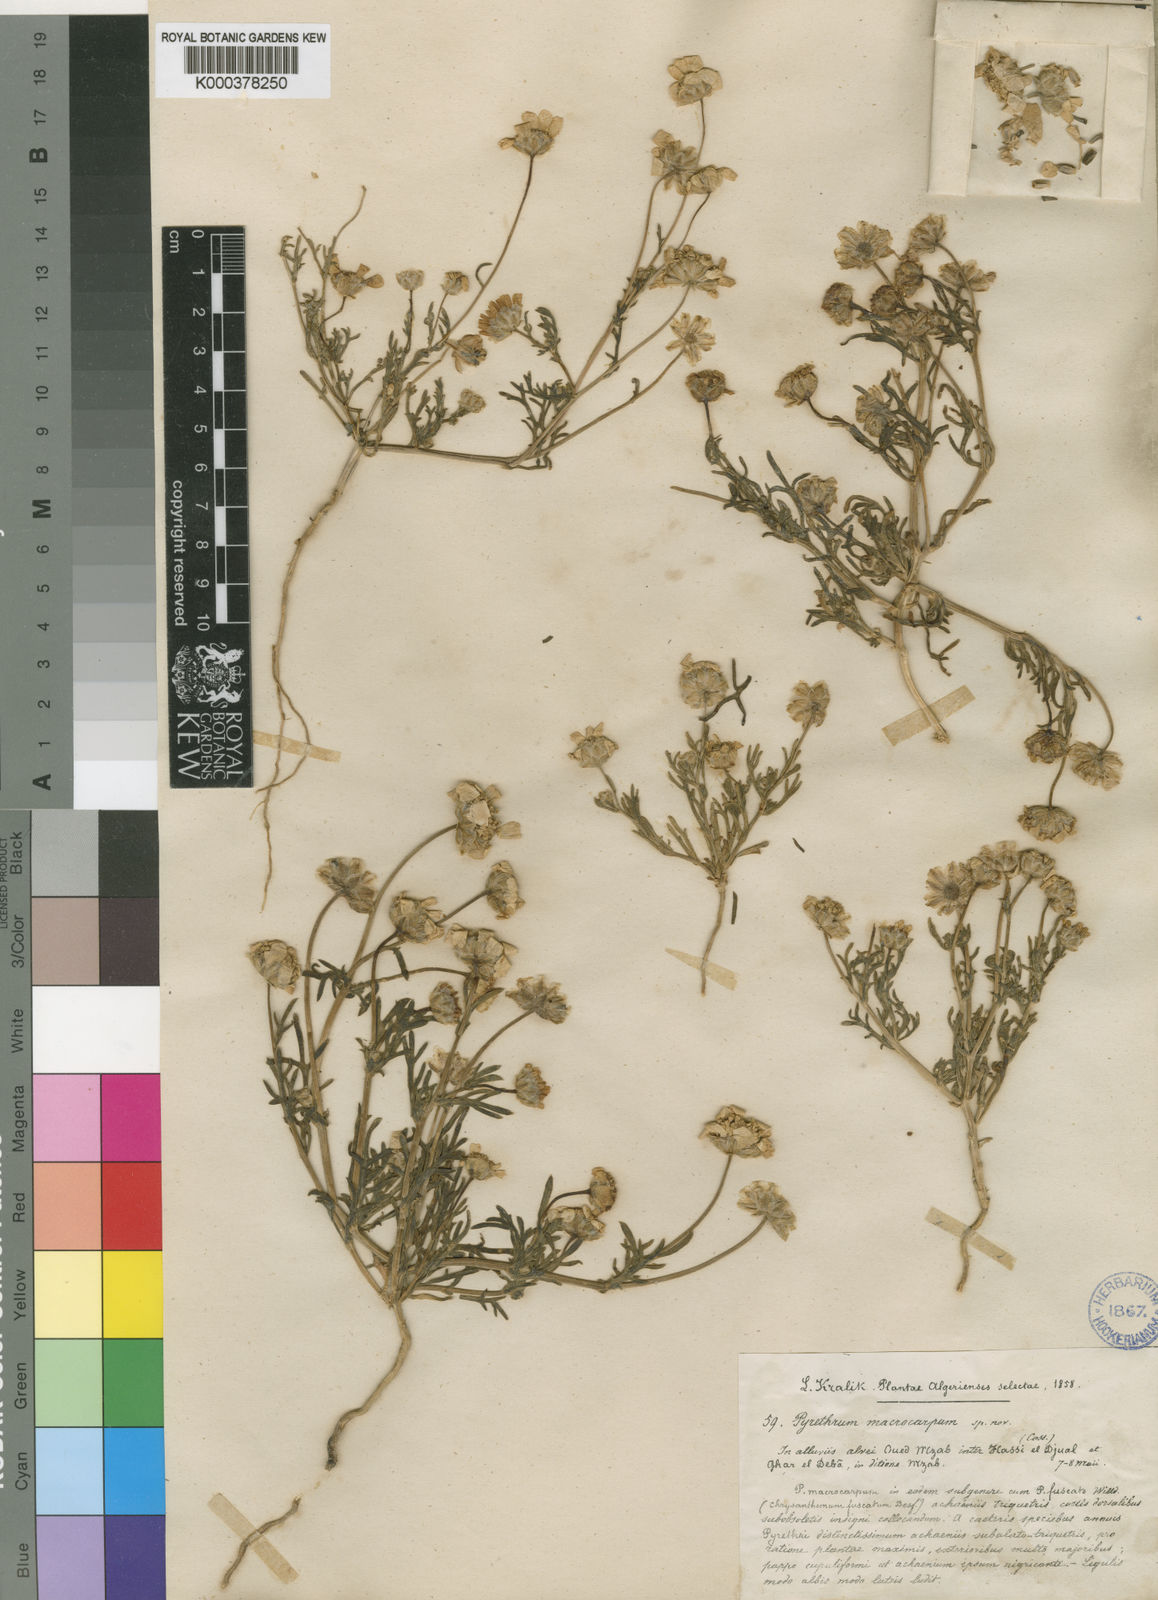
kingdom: Plantae
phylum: Tracheophyta
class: Magnoliopsida
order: Asterales
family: Asteraceae
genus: Endopappus
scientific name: Endopappus macrocarpus
